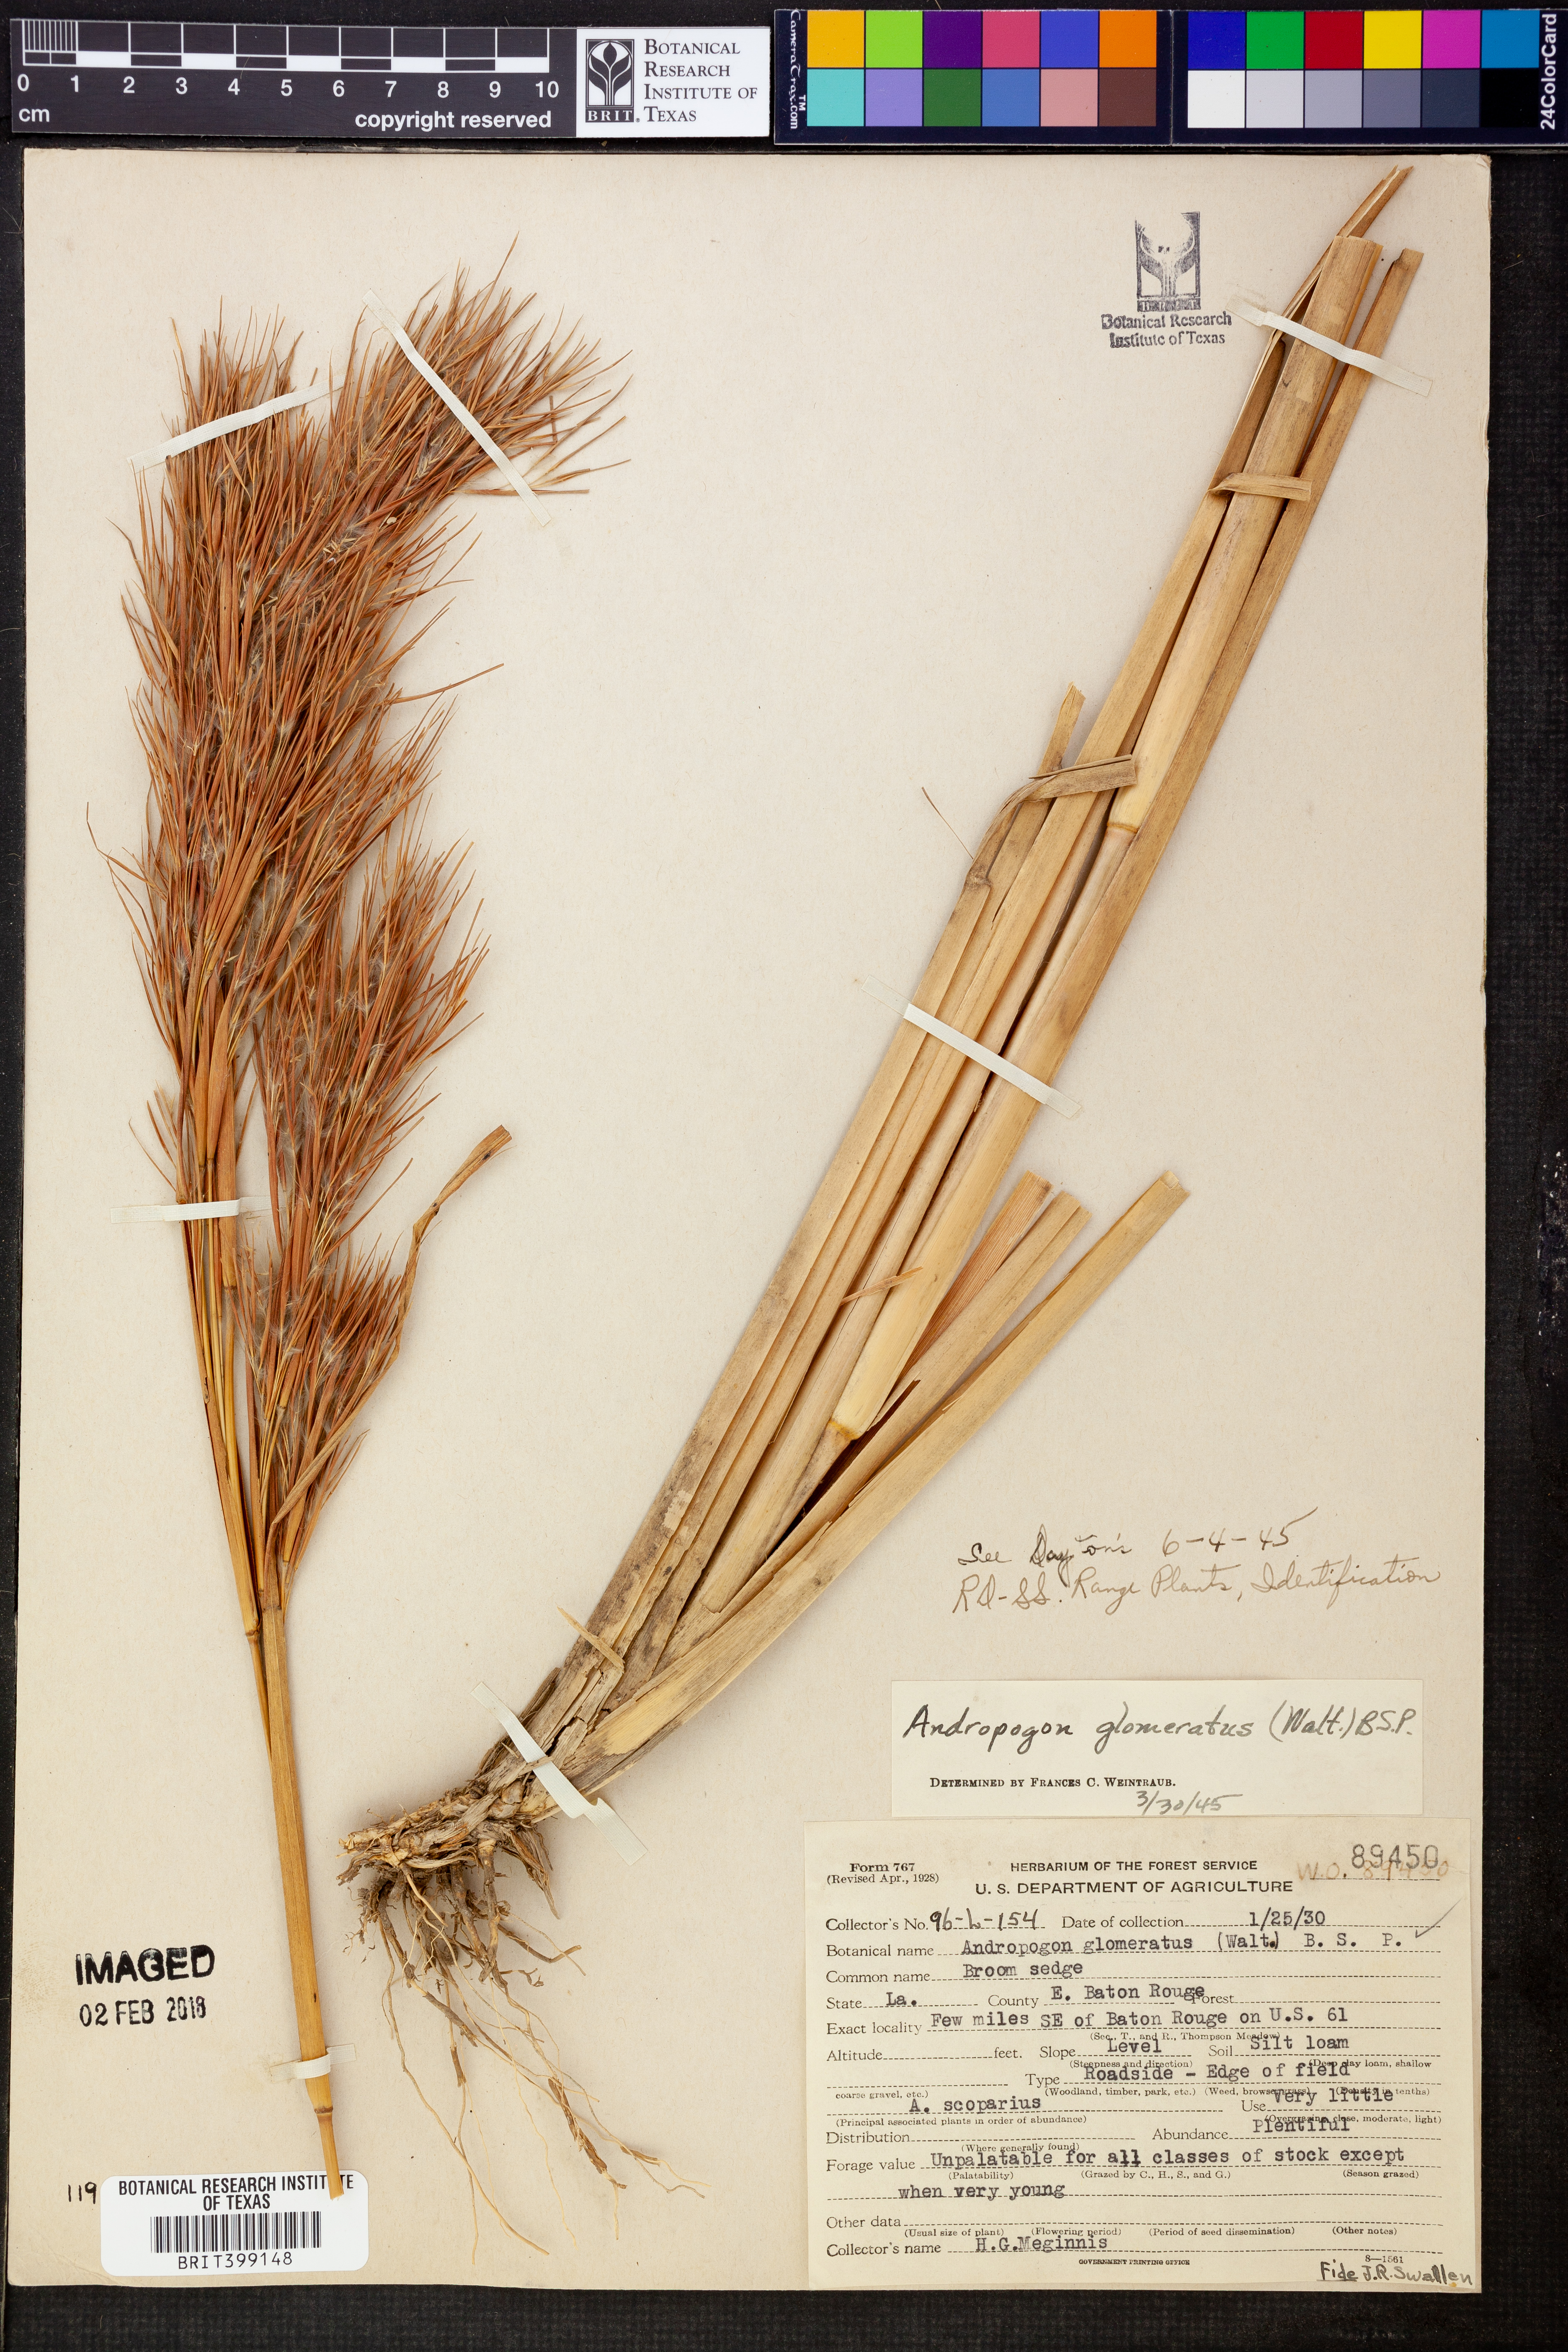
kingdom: Plantae
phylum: Tracheophyta
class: Liliopsida
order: Poales
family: Poaceae
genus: Andropogon
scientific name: Andropogon glomeratus
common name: Bushy beard grass
